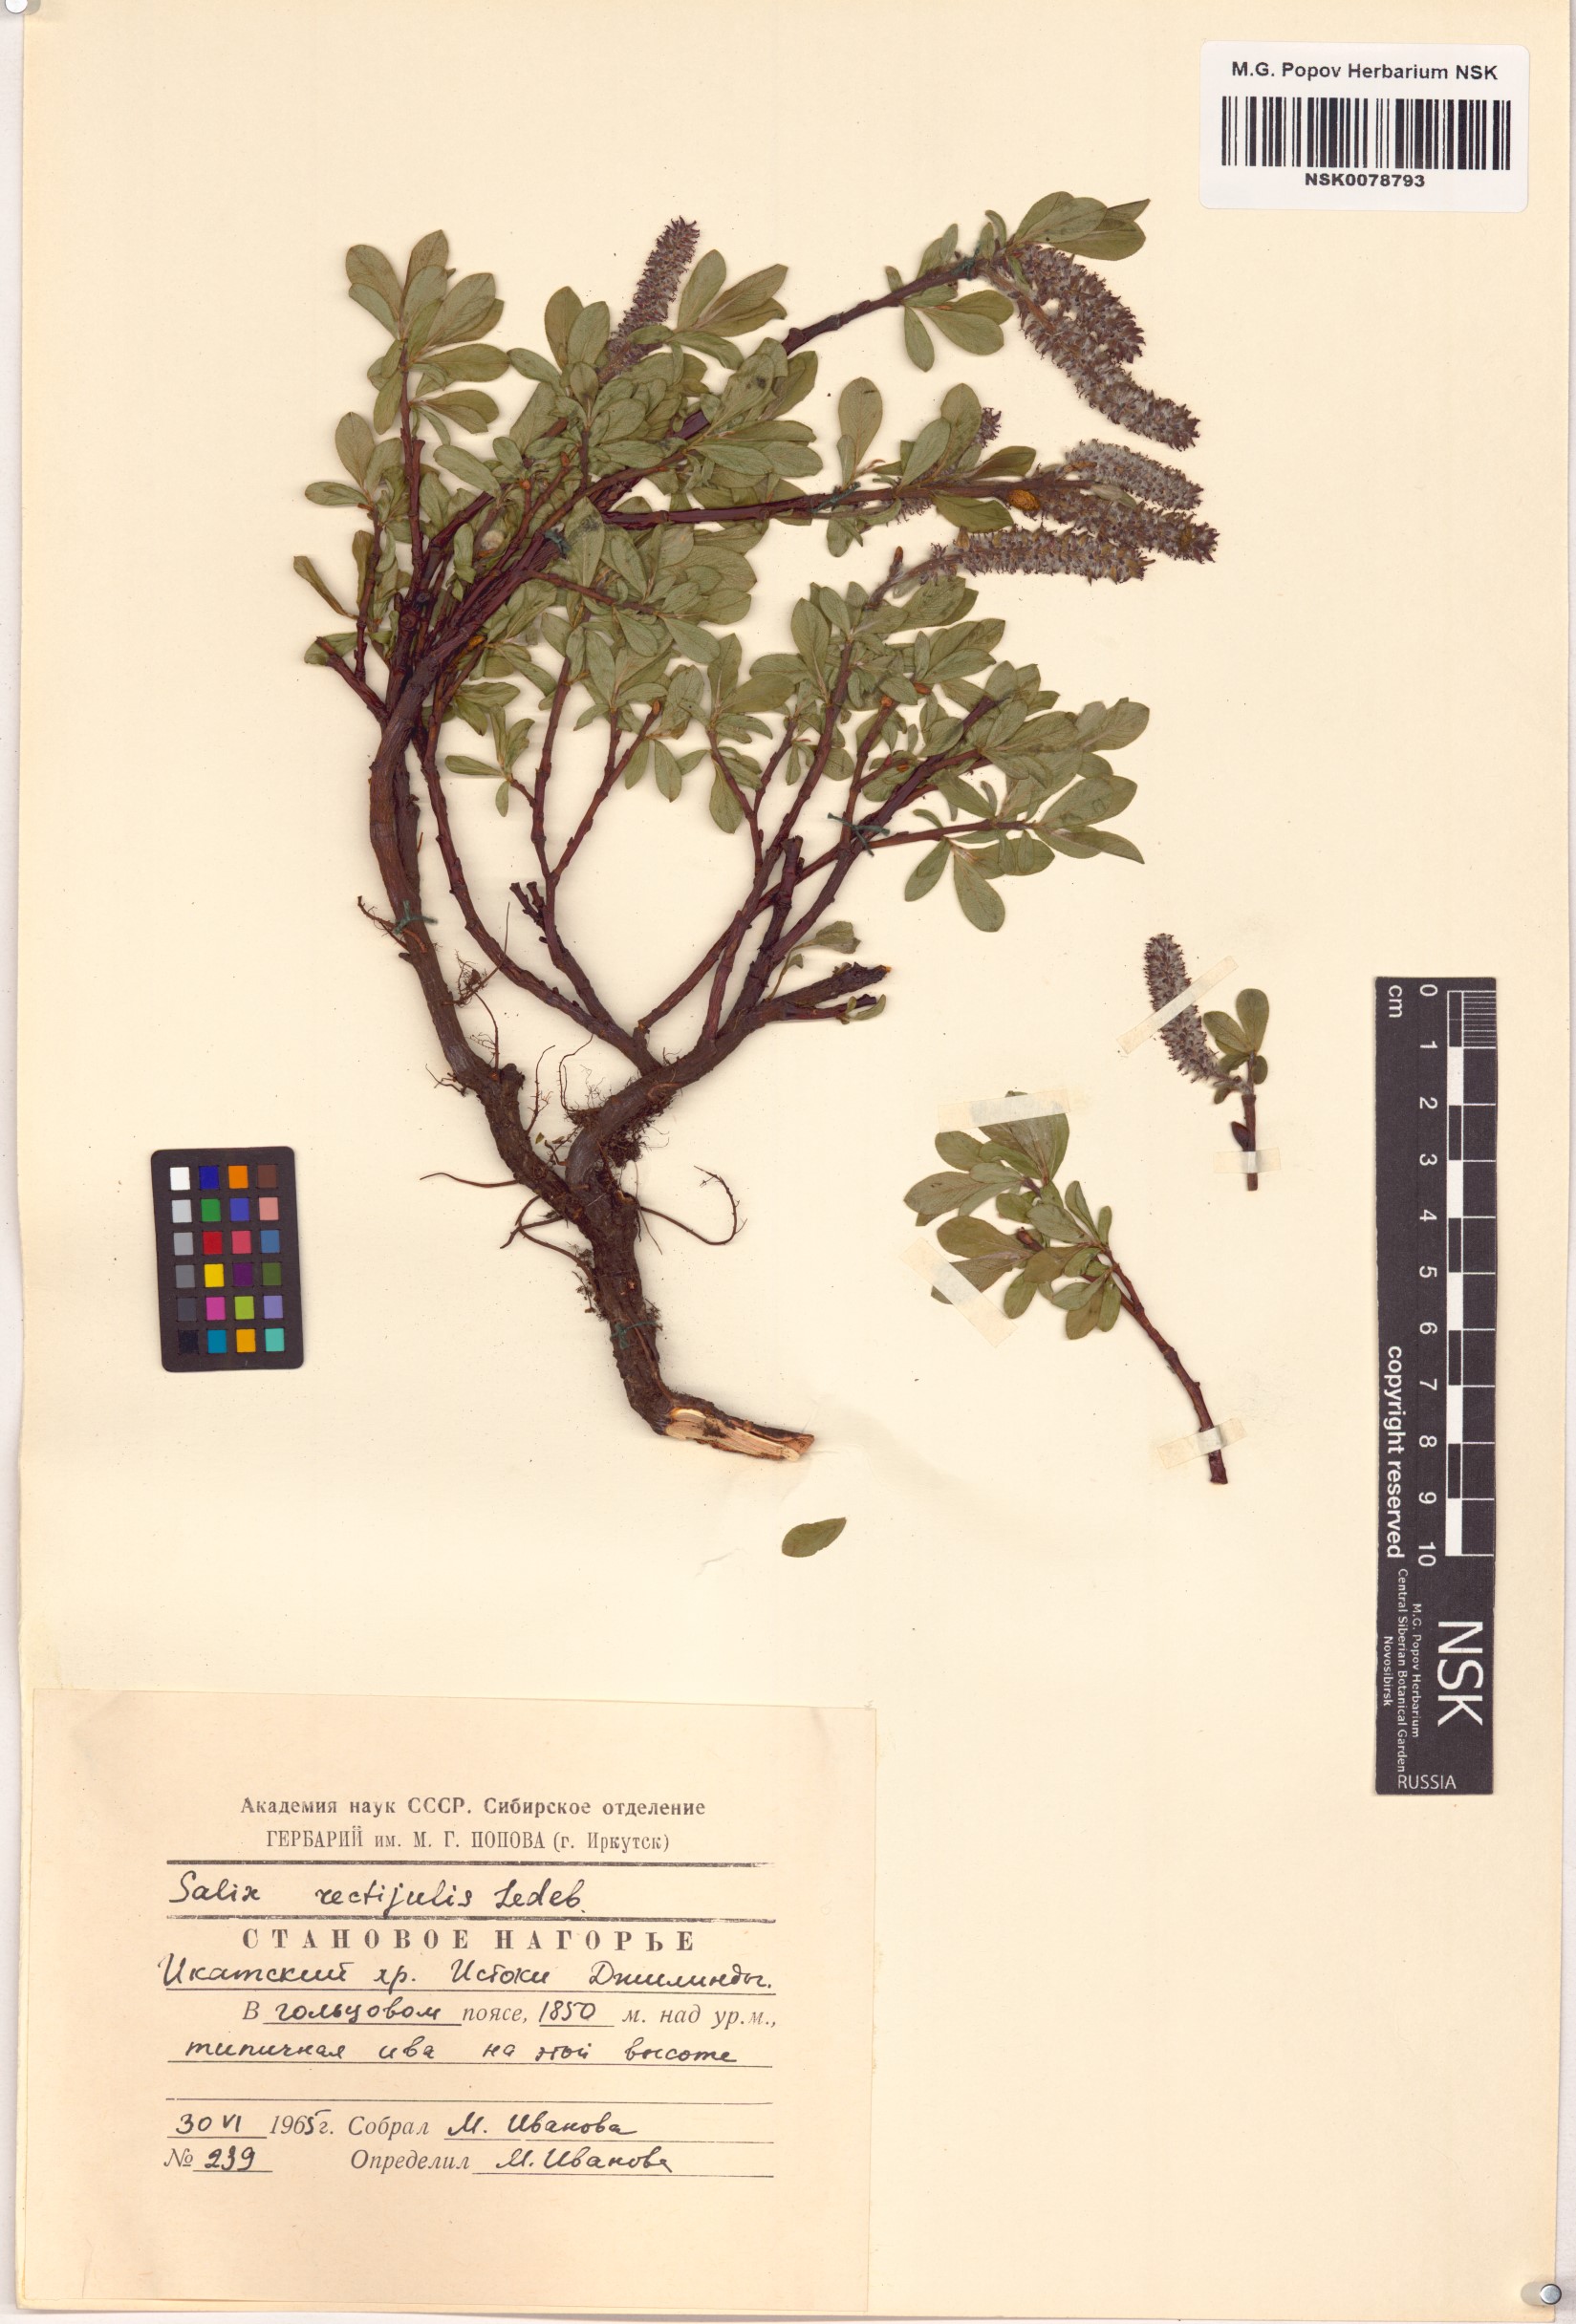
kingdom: Plantae
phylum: Tracheophyta
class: Magnoliopsida
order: Malpighiales
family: Salicaceae
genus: Salix
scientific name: Salix rectijulis
